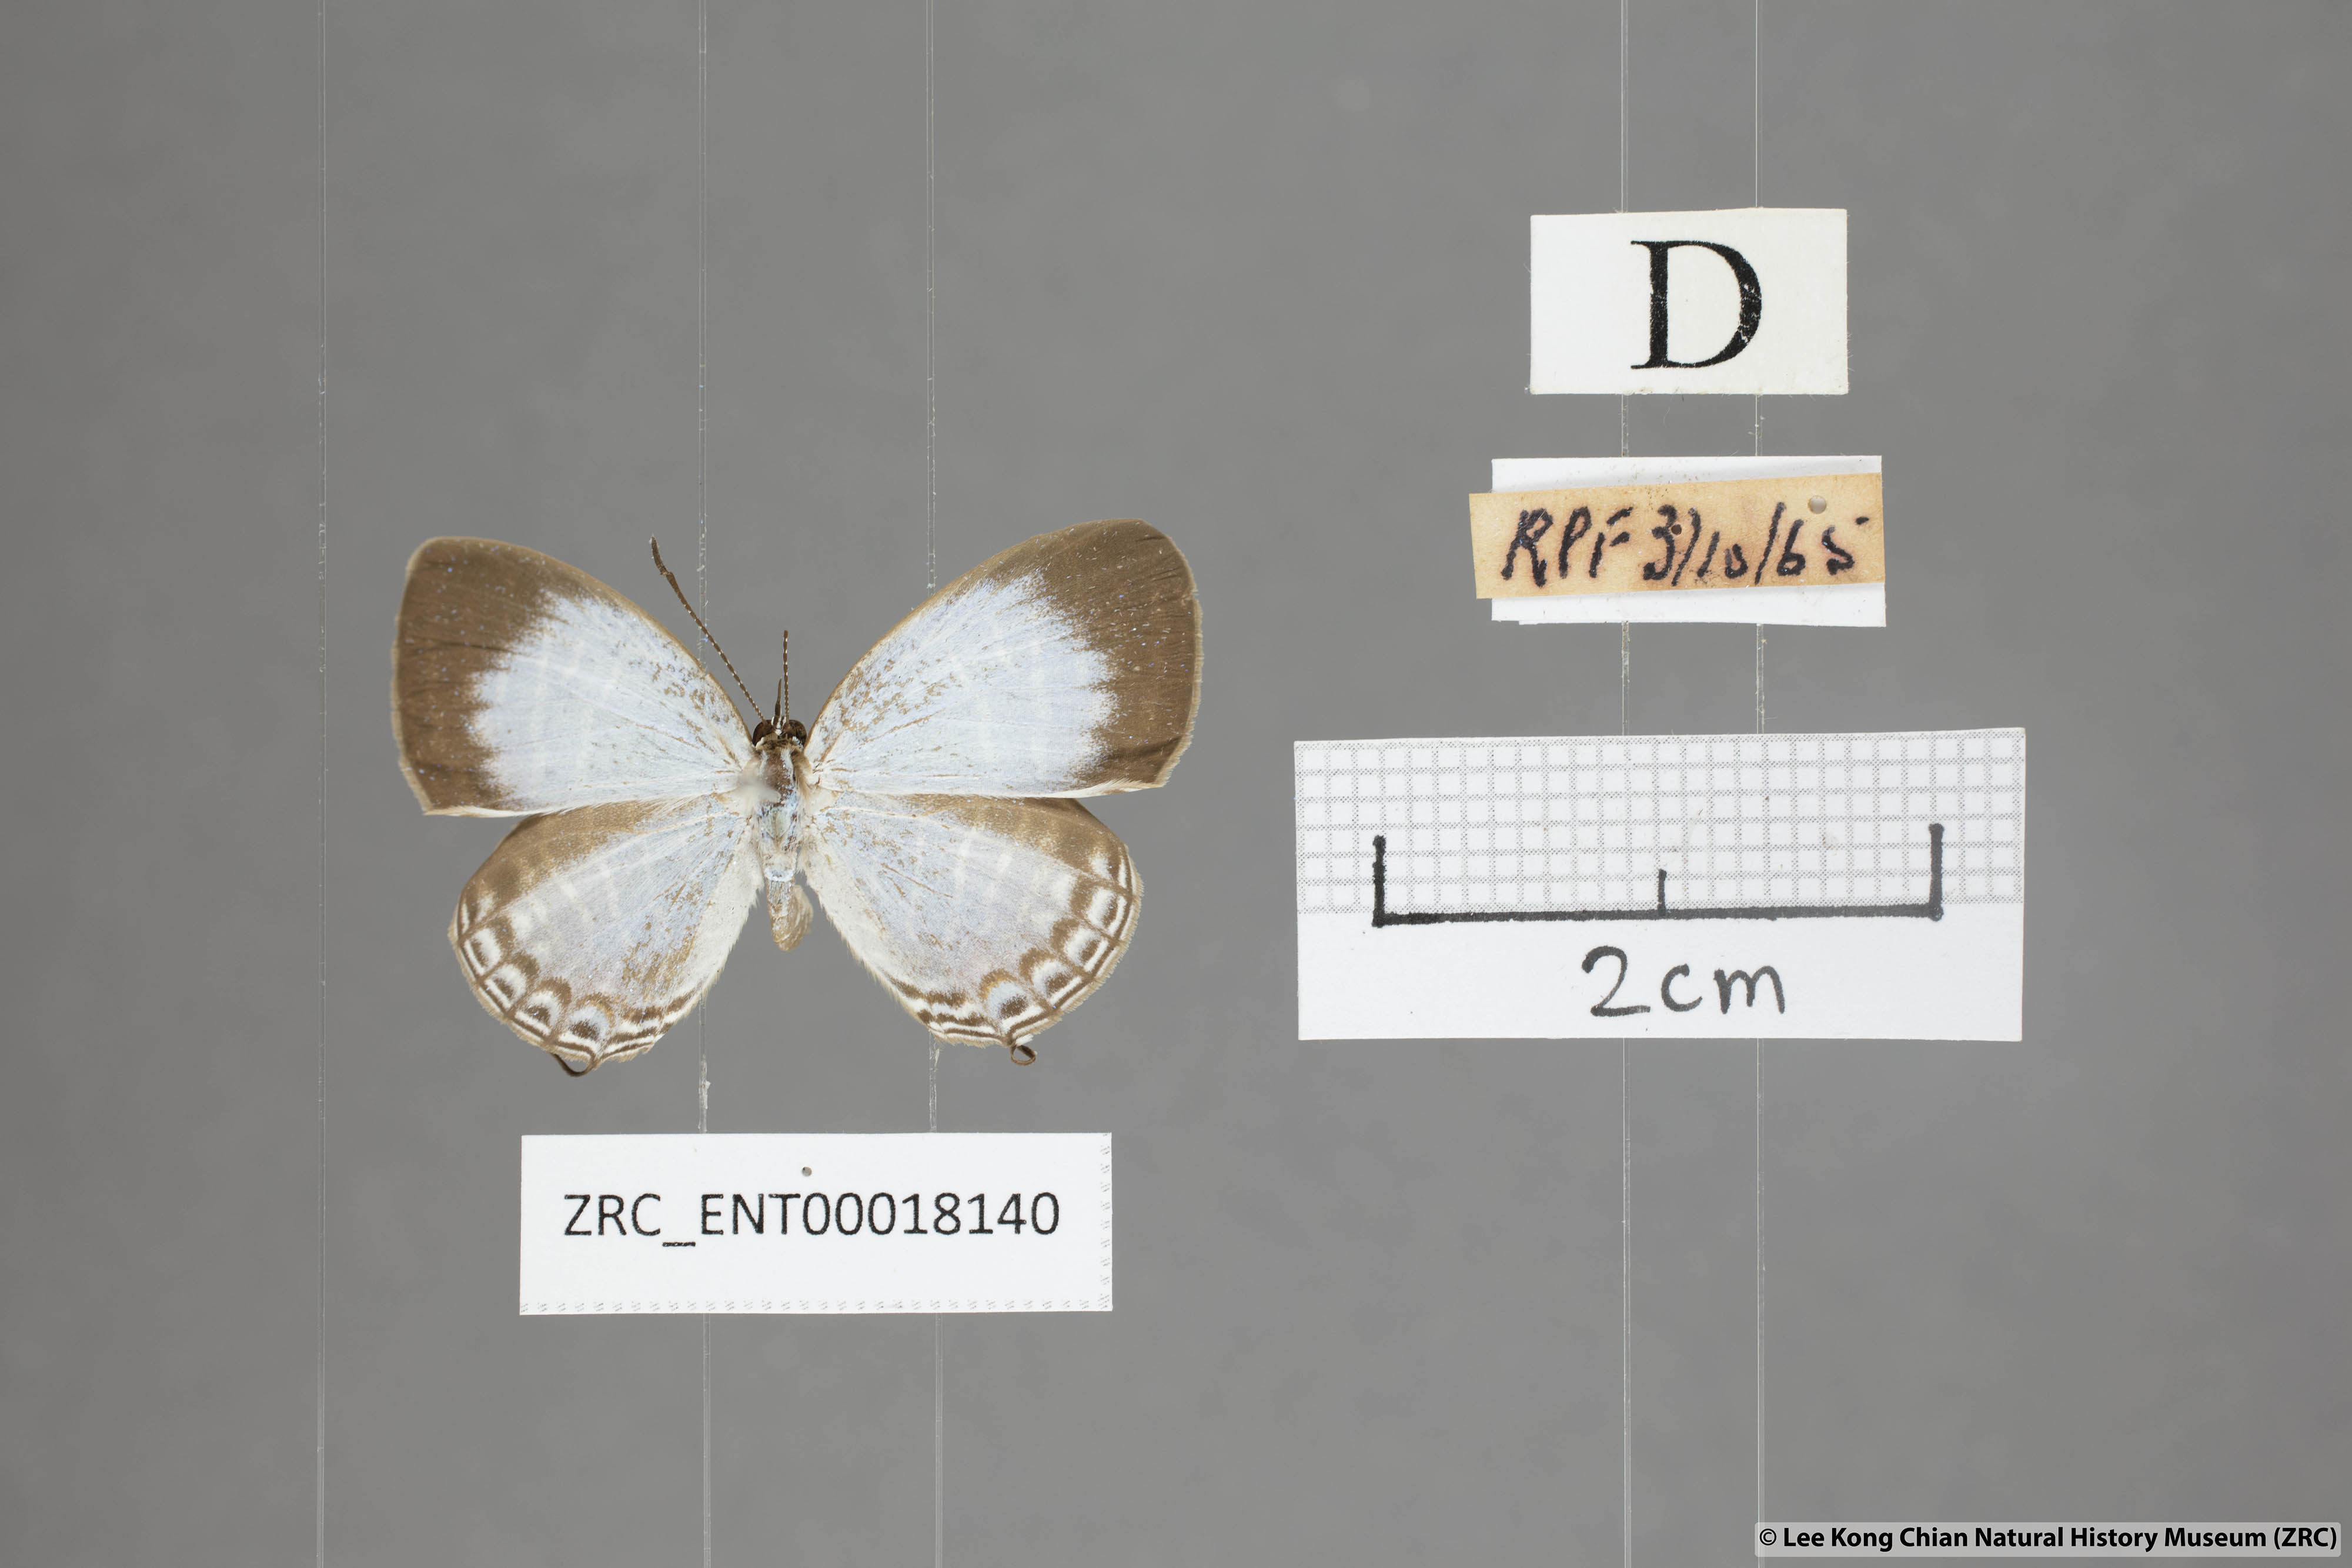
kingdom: Animalia
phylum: Arthropoda
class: Insecta
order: Lepidoptera
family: Lycaenidae
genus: Jamides
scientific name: Jamides malaccanus
